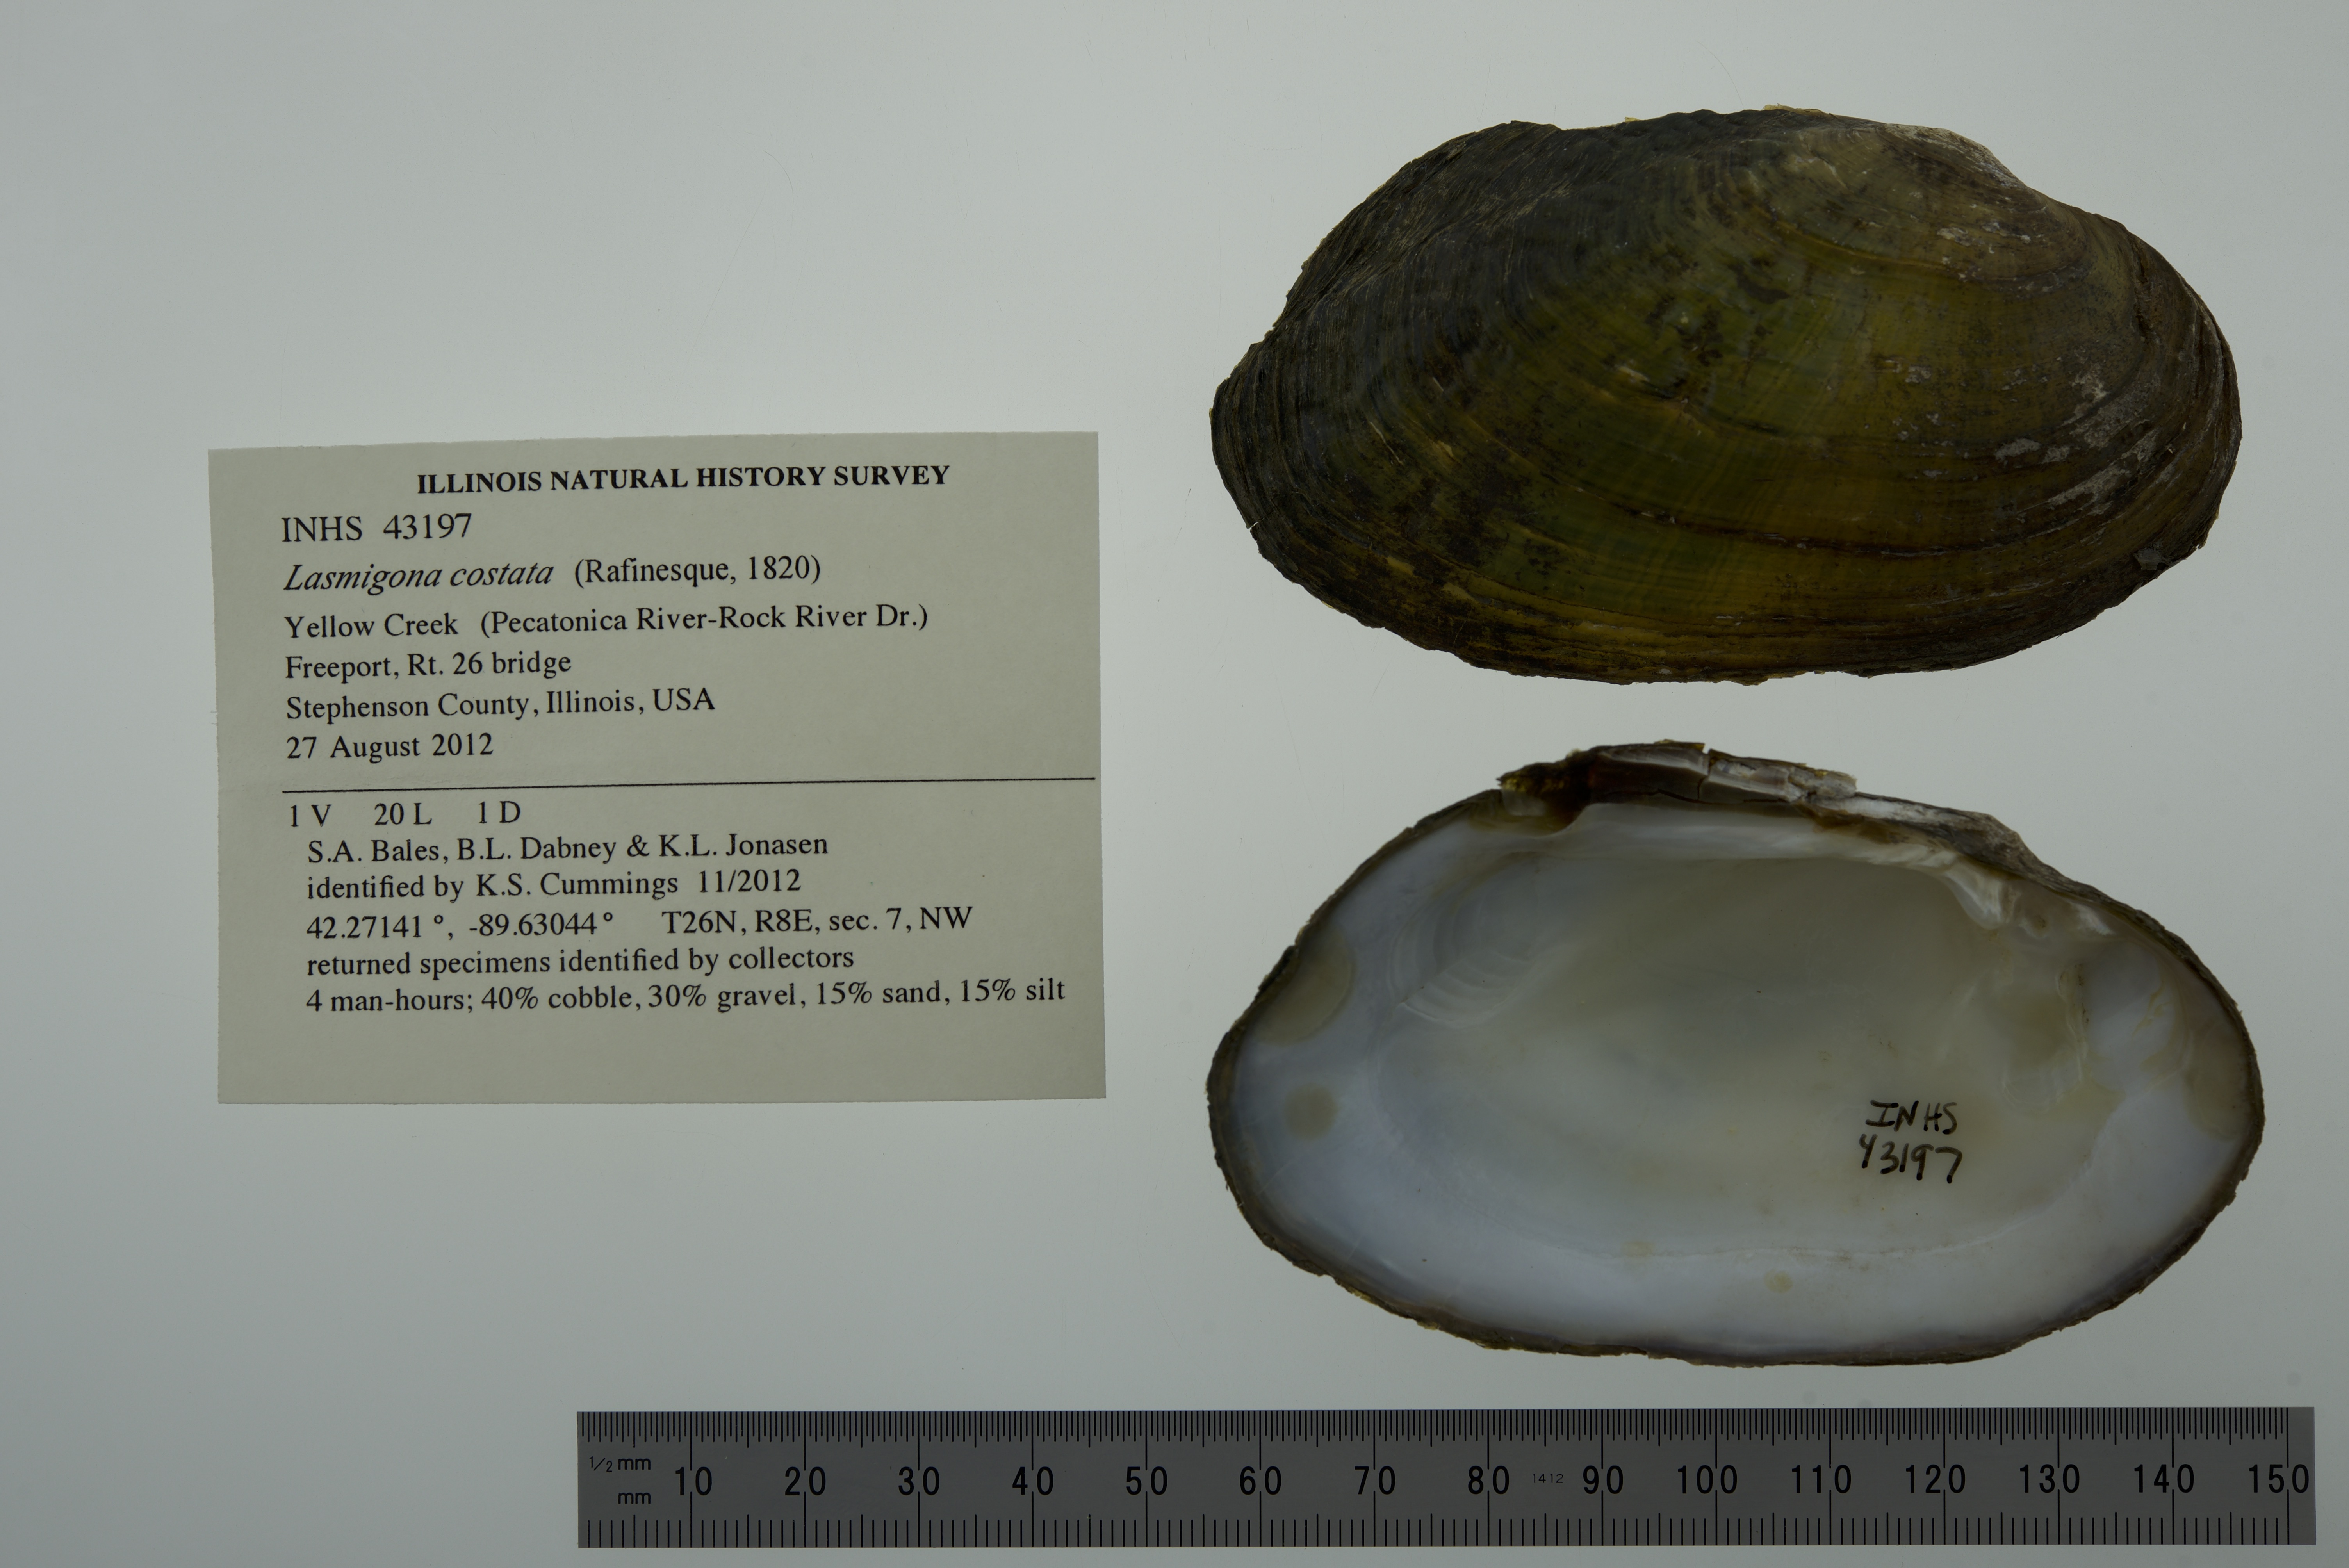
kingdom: Animalia
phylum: Mollusca
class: Bivalvia
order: Unionida
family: Unionidae
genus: Lasmigona
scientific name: Lasmigona costata
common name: Flutedshell
